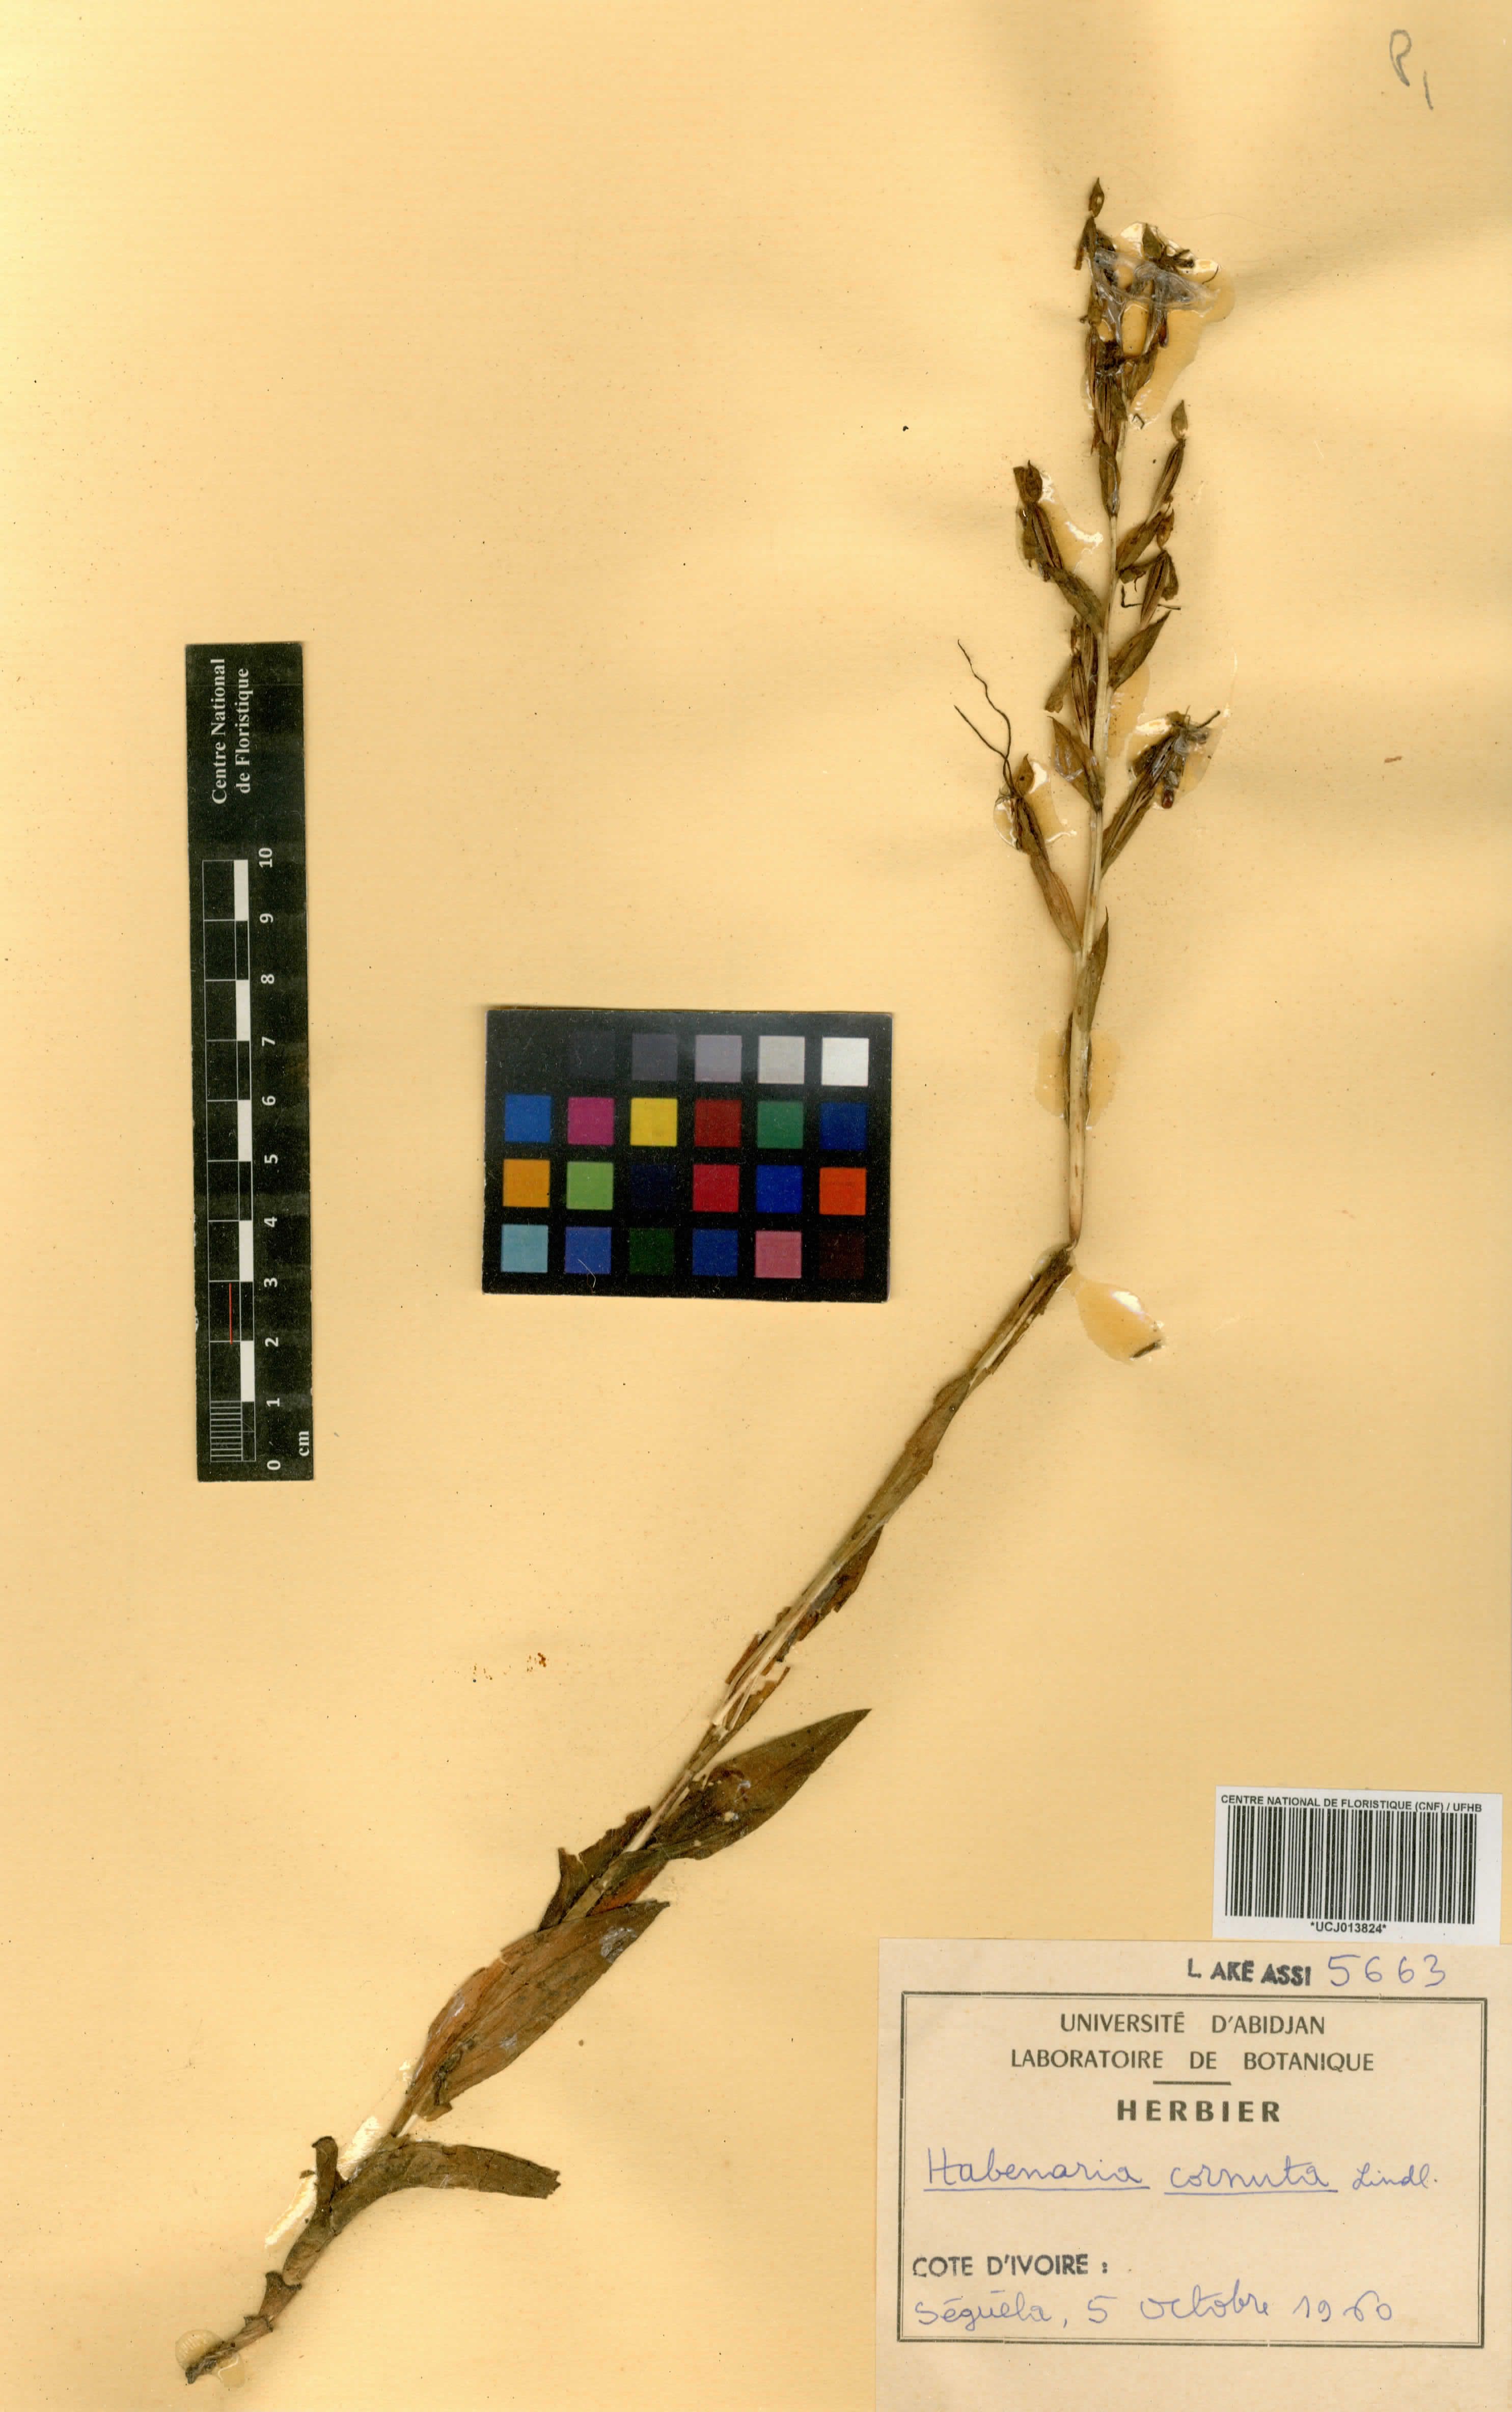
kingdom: Plantae
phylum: Tracheophyta
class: Liliopsida
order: Asparagales
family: Orchidaceae
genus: Habenaria
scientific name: Habenaria cornuta
